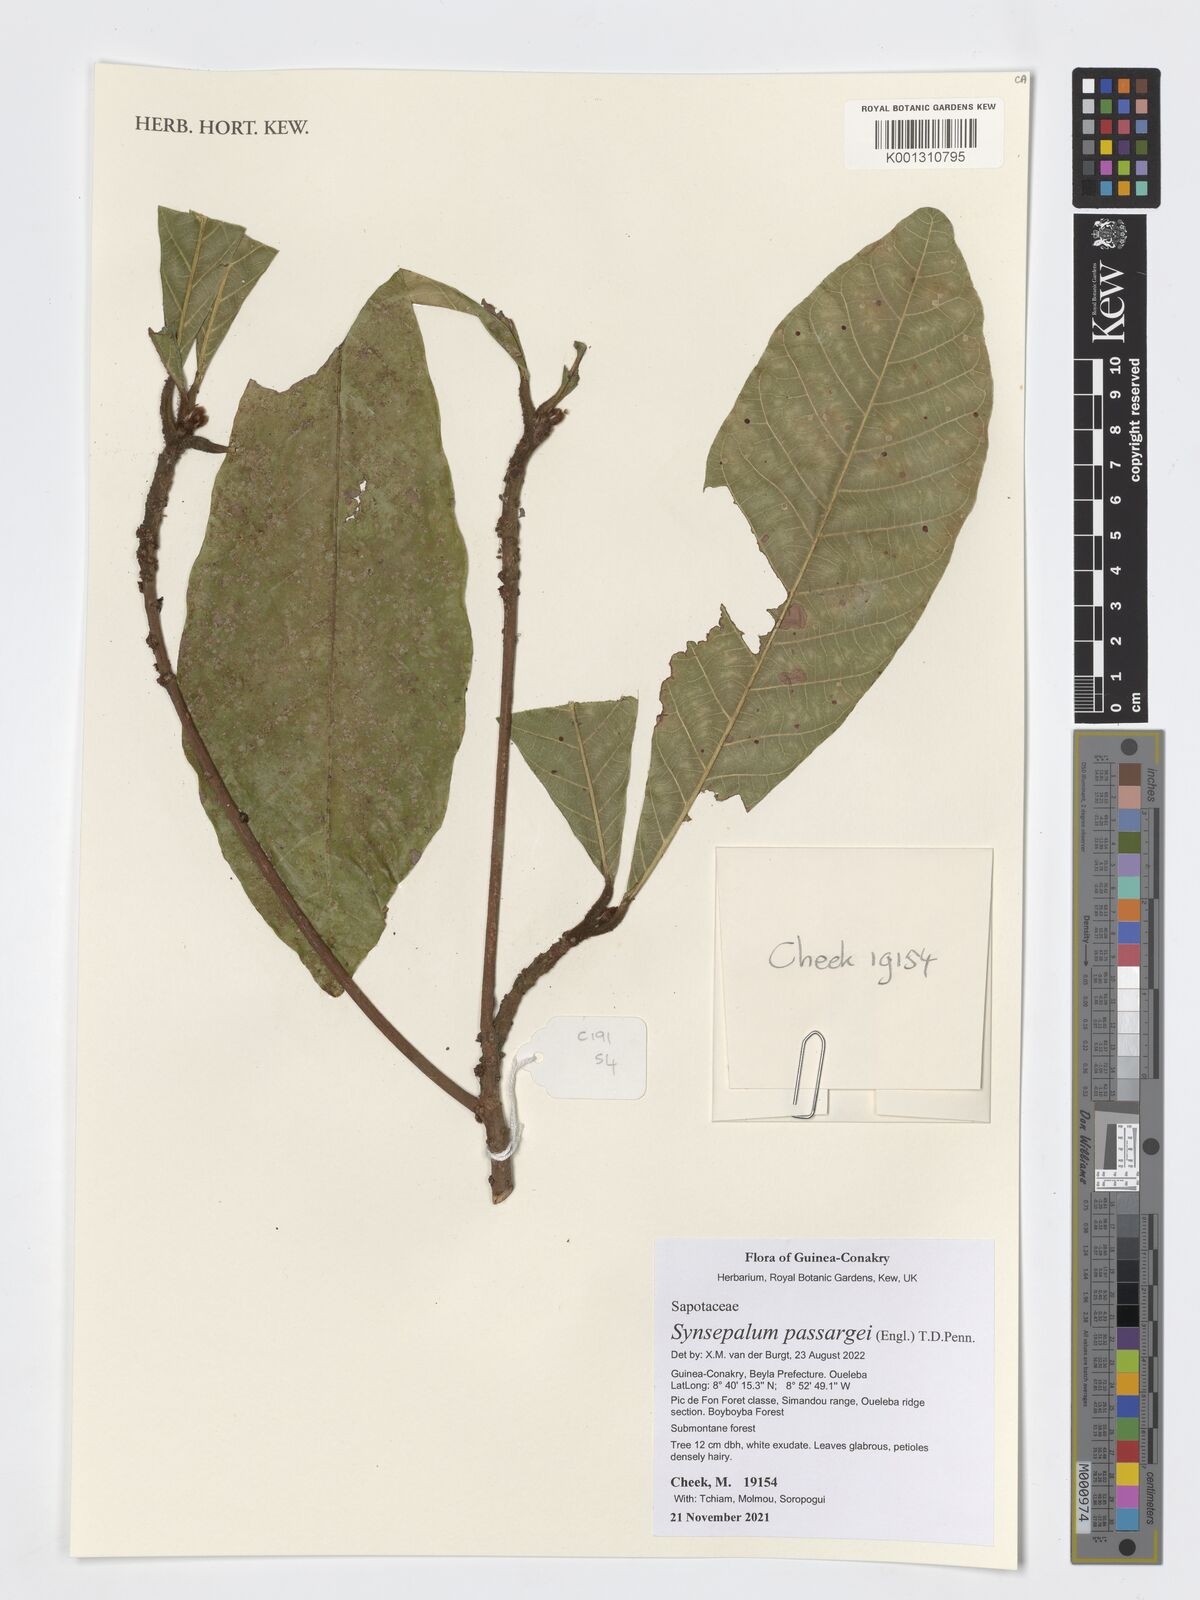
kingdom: Plantae
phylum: Tracheophyta
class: Magnoliopsida
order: Ericales
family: Sapotaceae
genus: Synsepalum
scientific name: Synsepalum passargei
